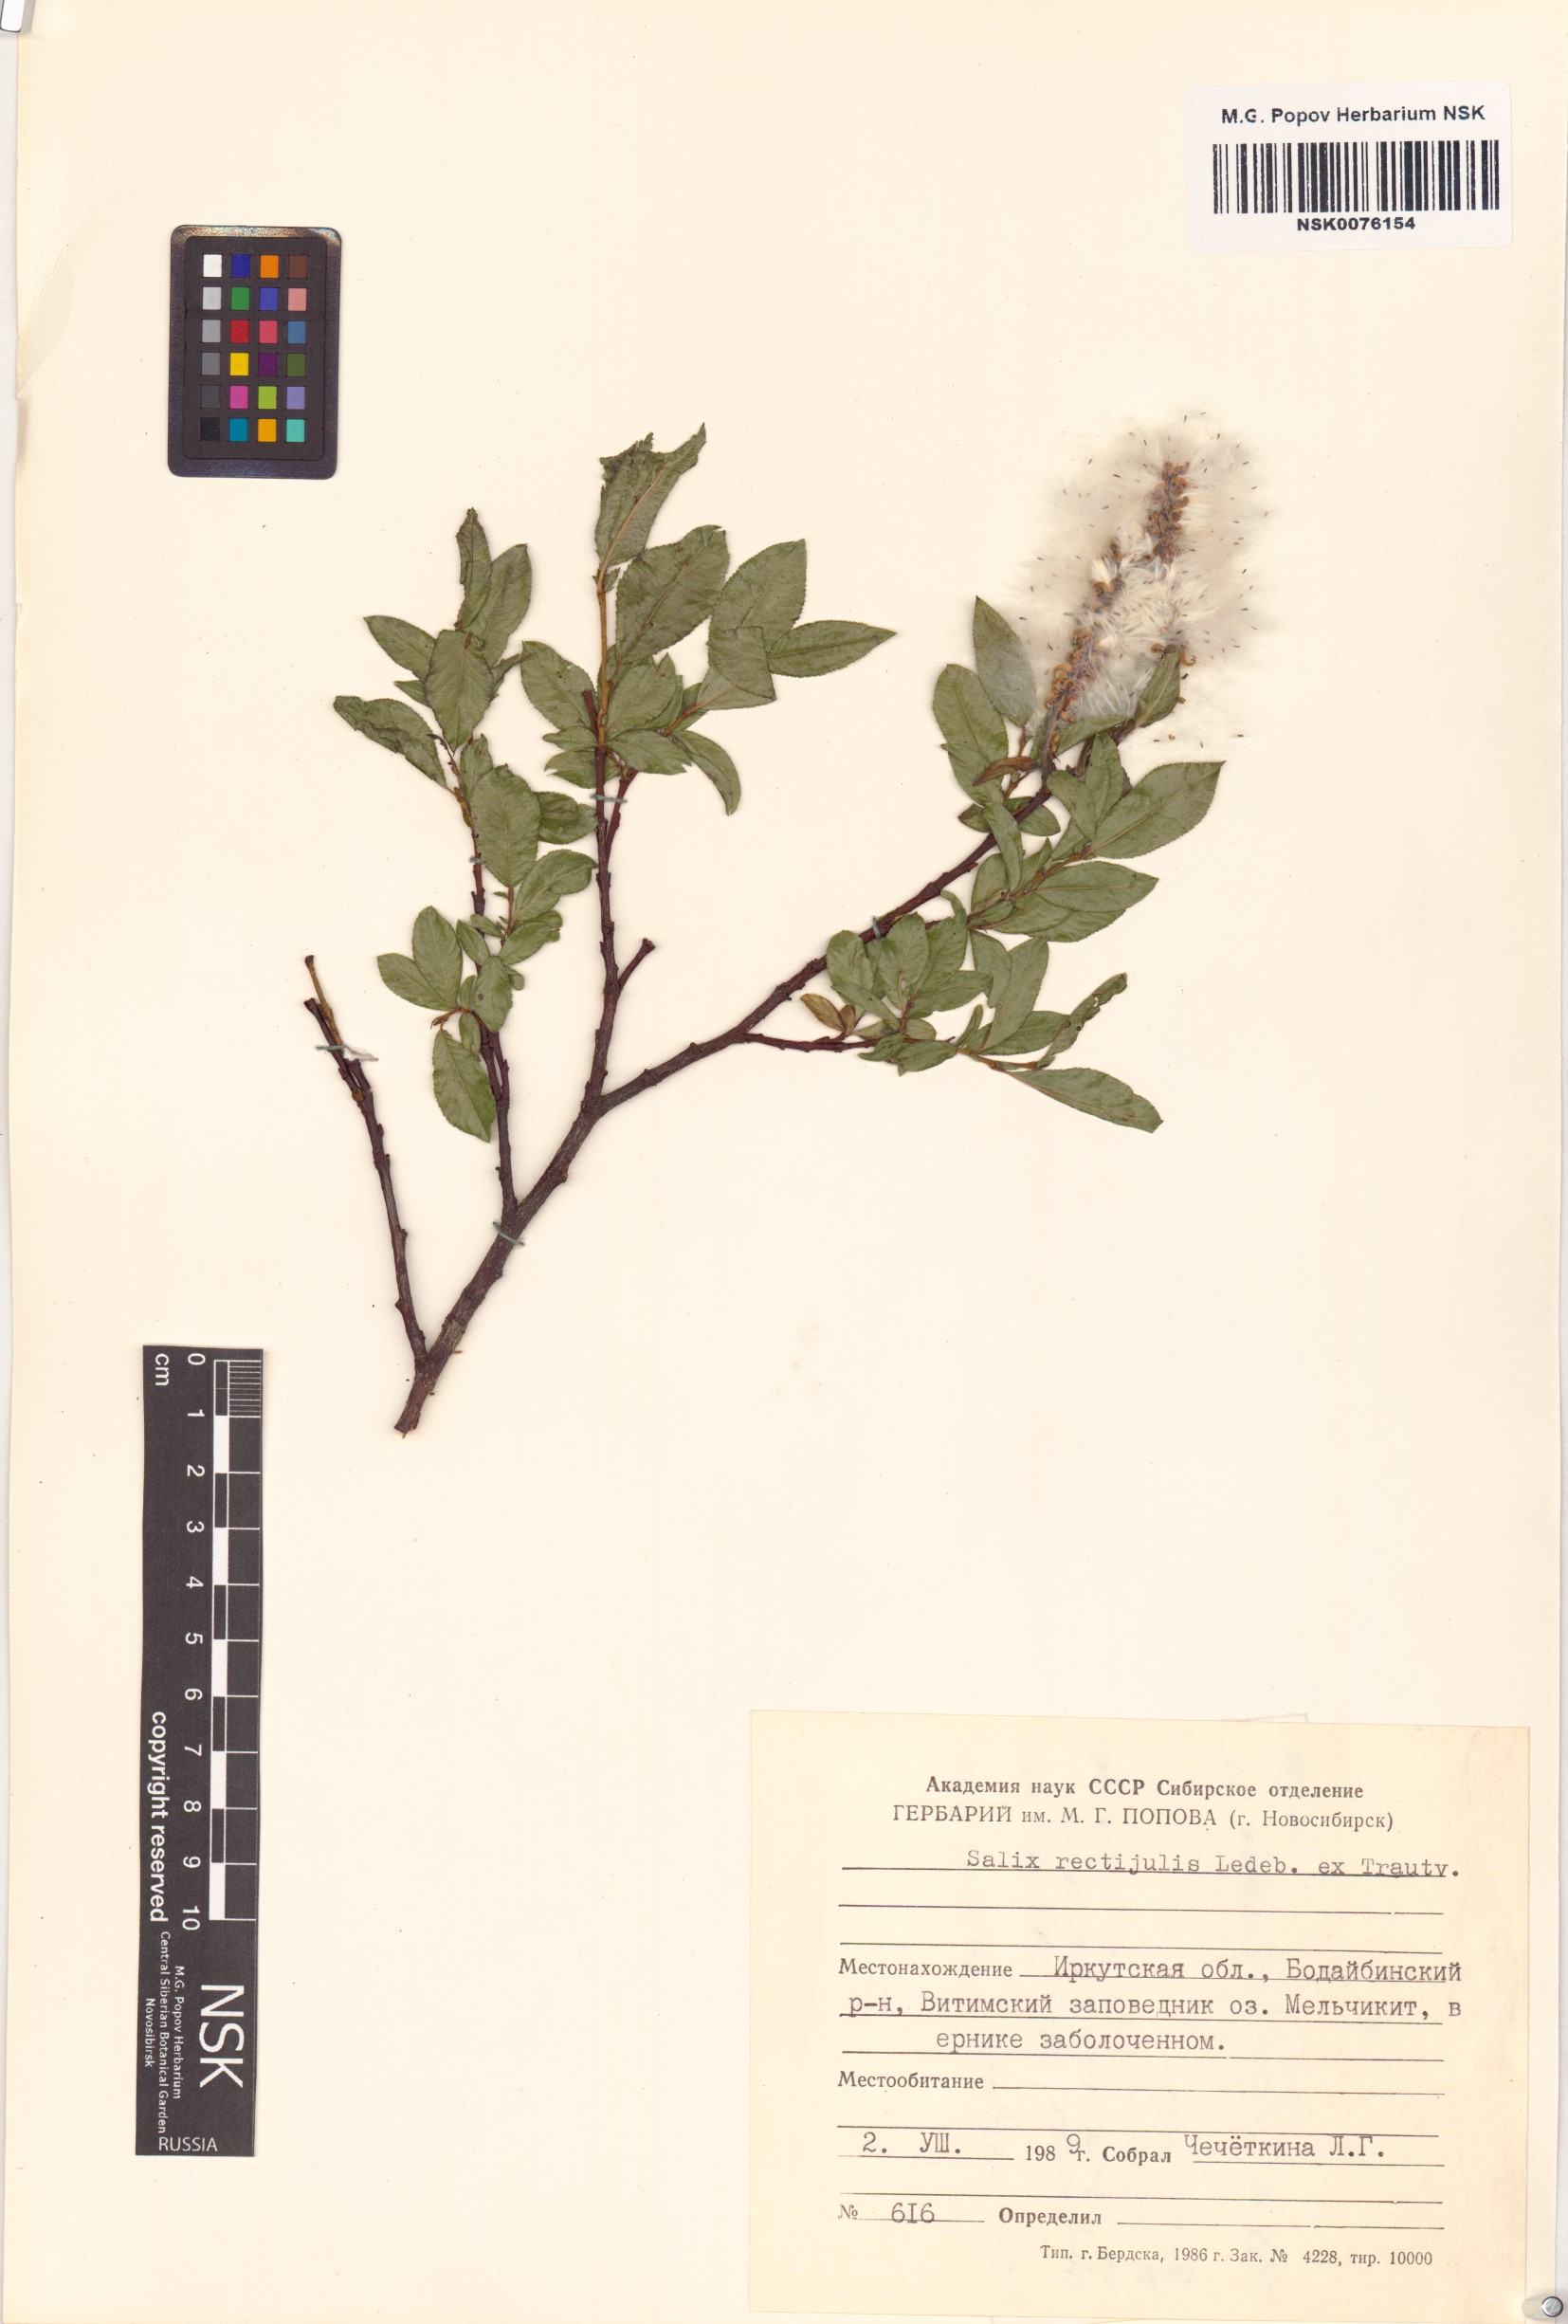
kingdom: Plantae
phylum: Tracheophyta
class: Magnoliopsida
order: Malpighiales
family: Salicaceae
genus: Salix
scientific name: Salix rectijulis
